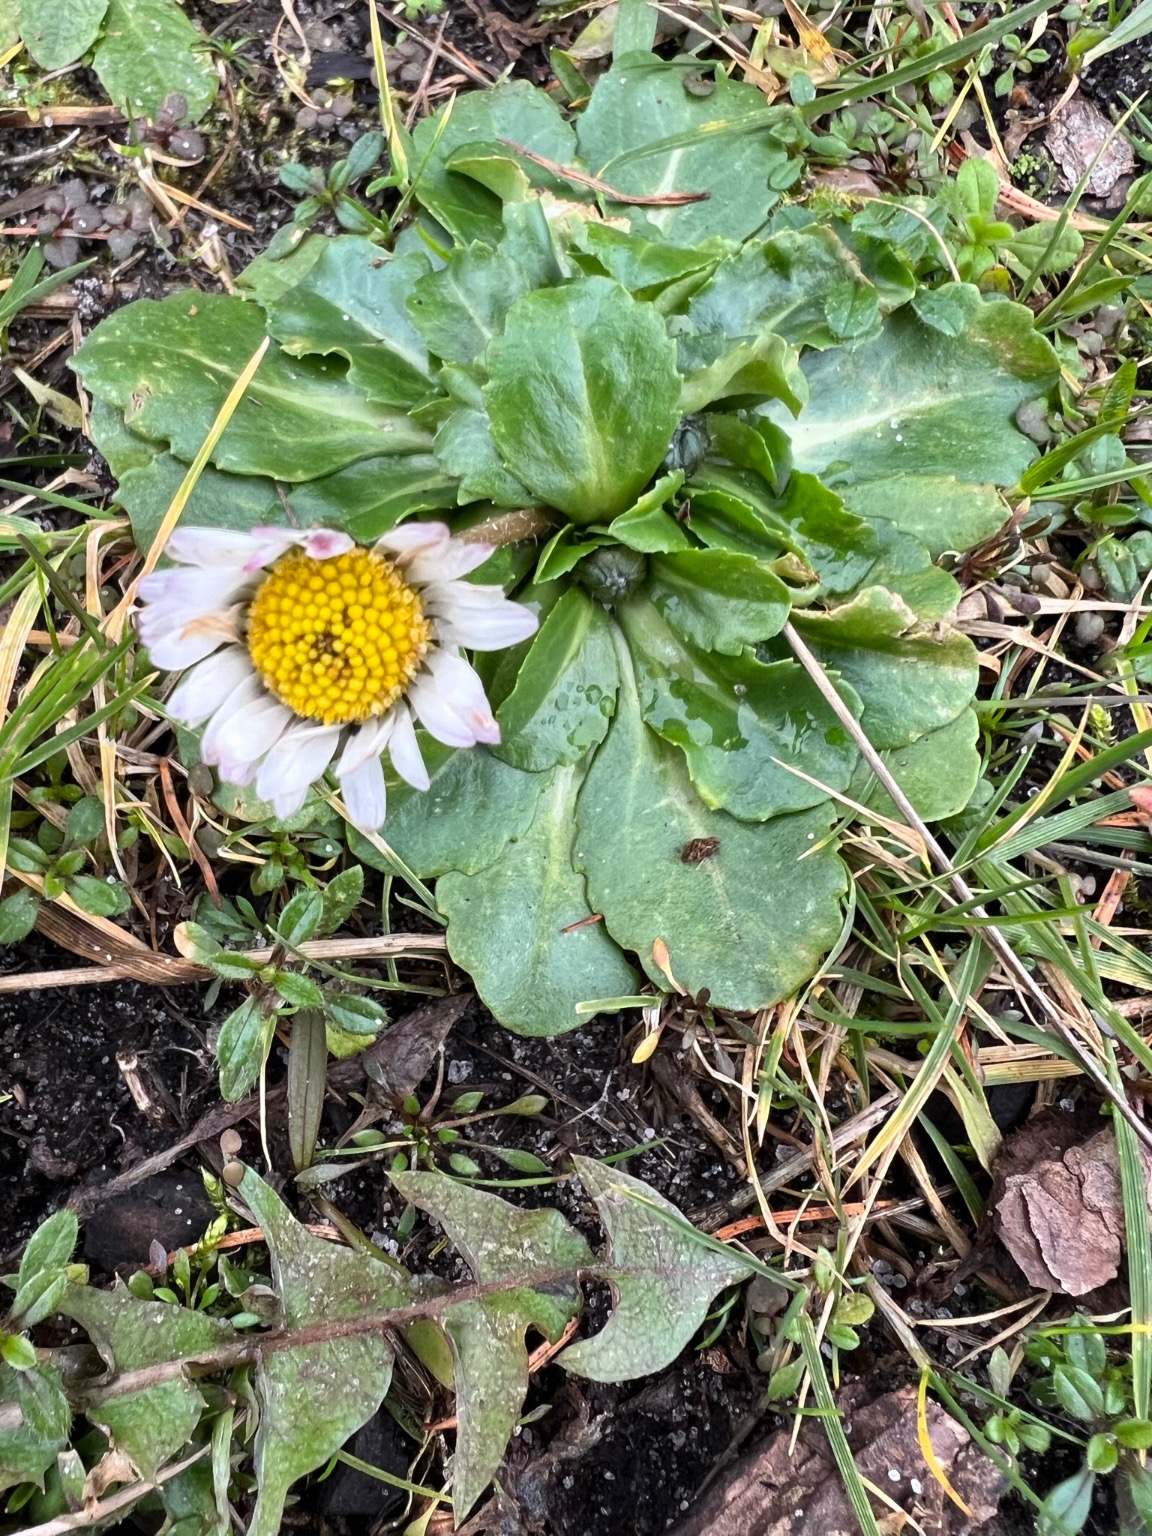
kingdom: Plantae
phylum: Tracheophyta
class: Magnoliopsida
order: Asterales
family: Asteraceae
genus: Bellis
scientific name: Bellis perennis
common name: Tusindfryd
